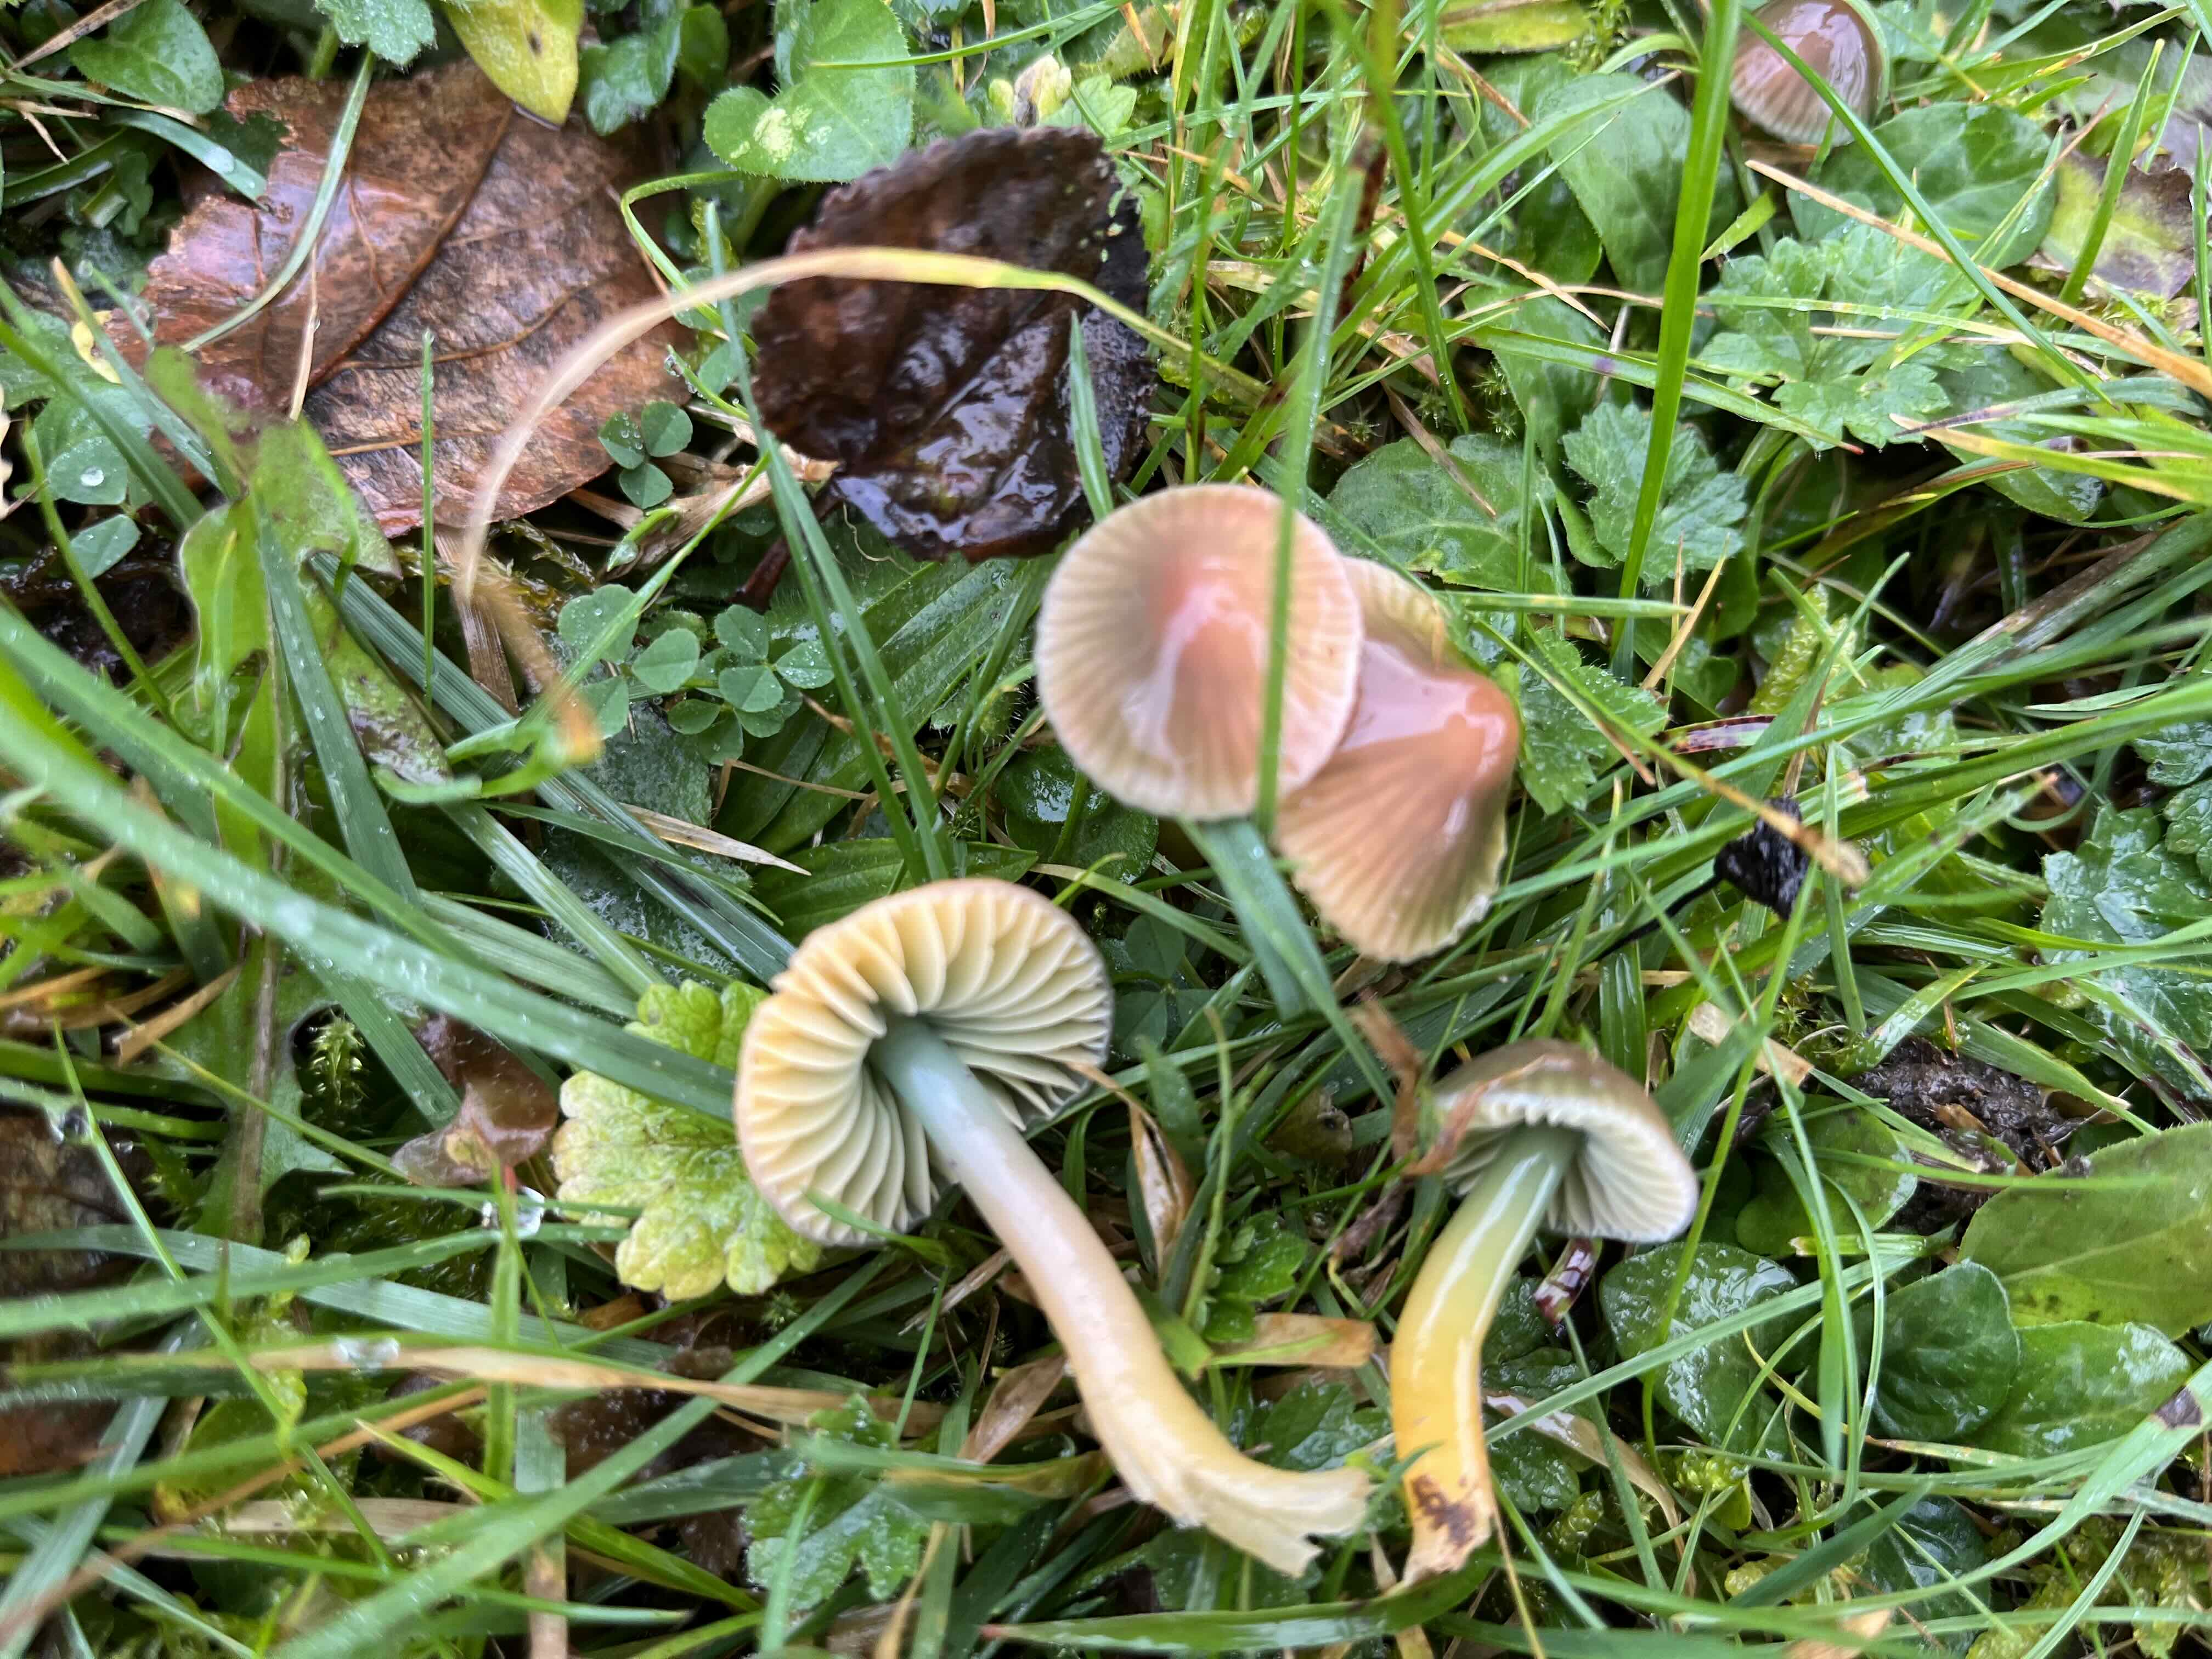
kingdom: Fungi
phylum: Basidiomycota
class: Agaricomycetes
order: Agaricales
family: Hygrophoraceae
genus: Gliophorus
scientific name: Gliophorus psittacinus
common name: papegøje-vokshat
